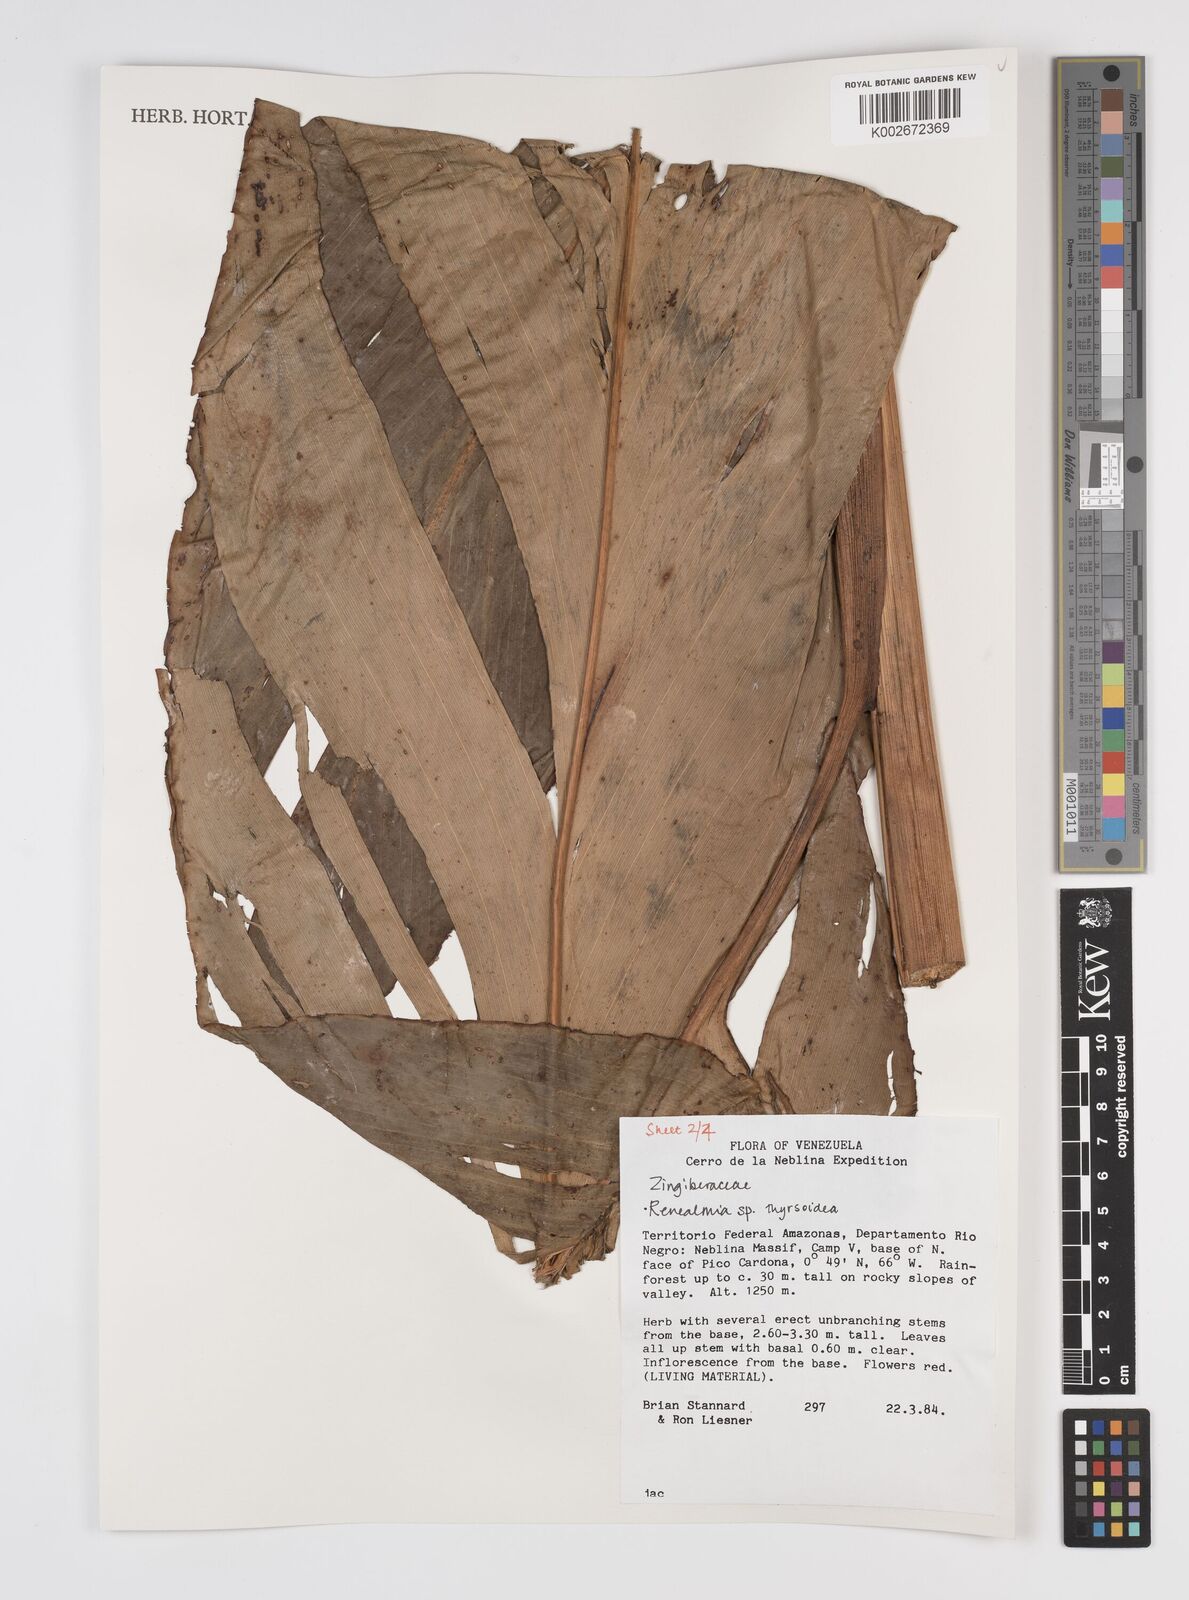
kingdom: Plantae
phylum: Tracheophyta
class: Liliopsida
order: Zingiberales
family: Zingiberaceae
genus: Renealmia
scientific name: Renealmia thyrsoidea
